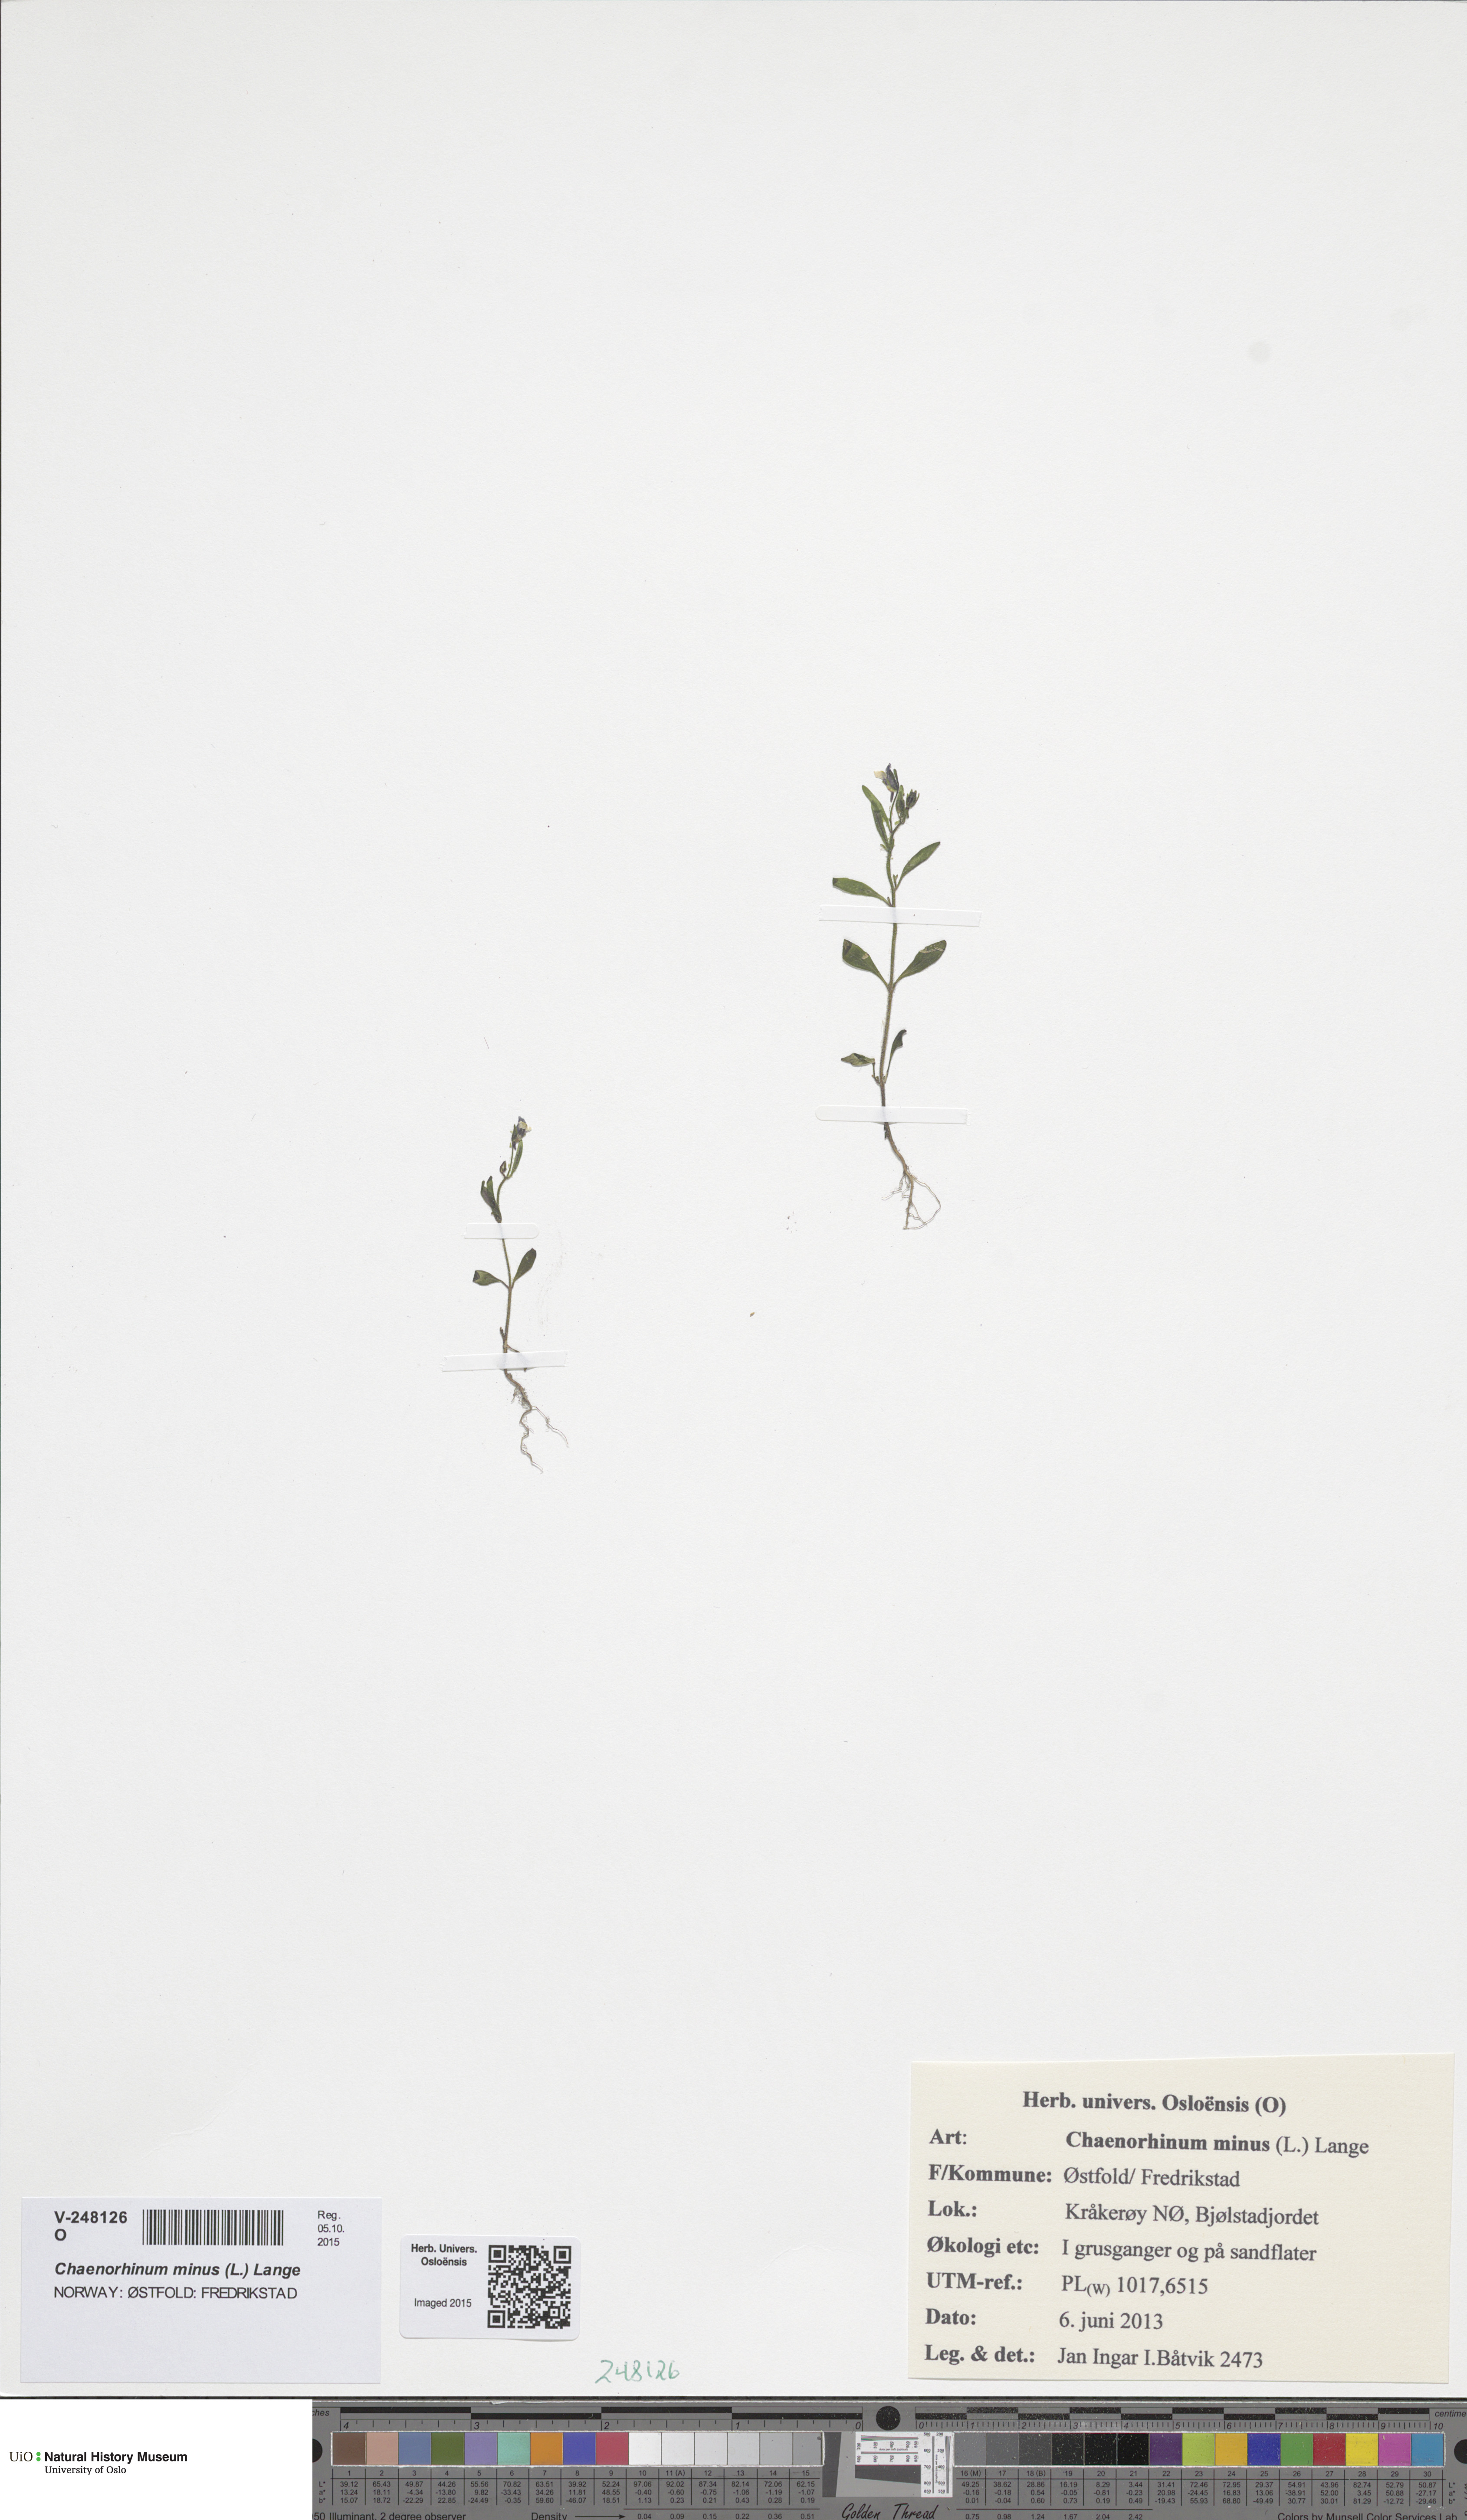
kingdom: Plantae
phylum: Tracheophyta
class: Magnoliopsida
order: Lamiales
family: Plantaginaceae
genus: Chaenorhinum
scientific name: Chaenorhinum minus
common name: Dwarf snapdragon
